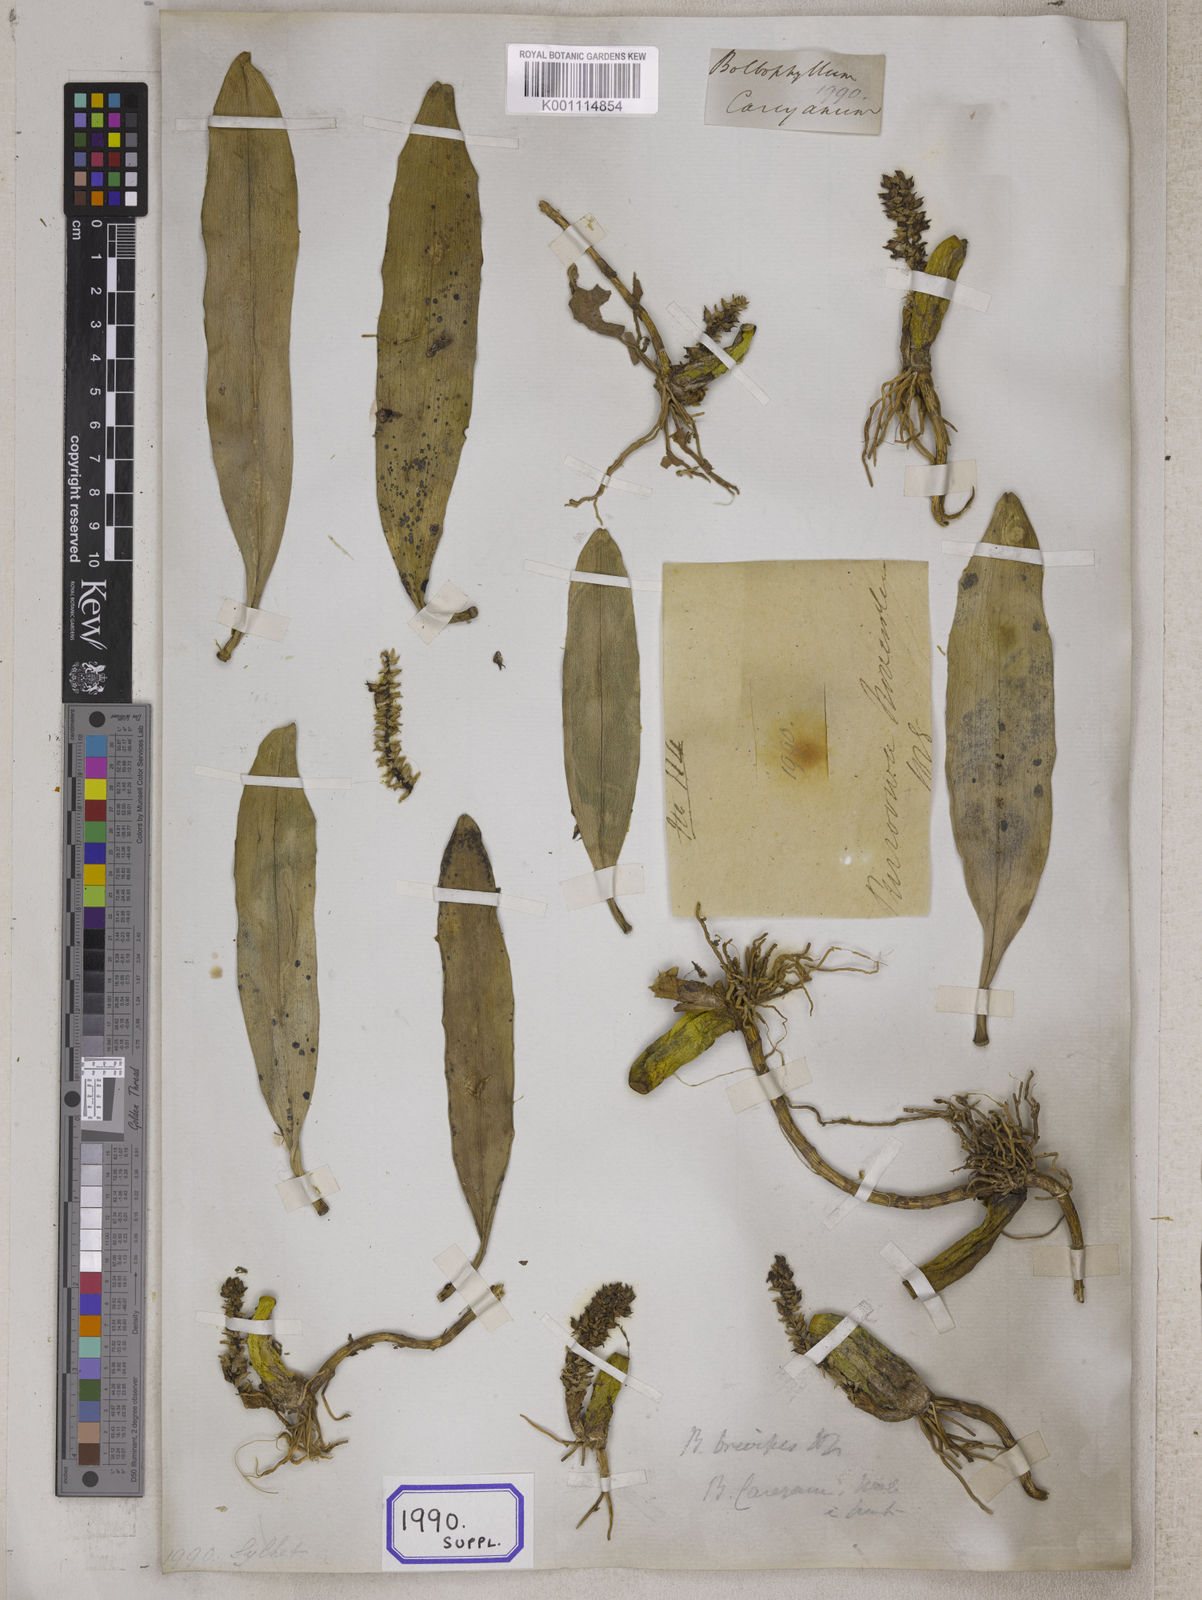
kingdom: Plantae
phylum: Tracheophyta
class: Liliopsida
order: Asparagales
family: Orchidaceae
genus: Bulbophyllum
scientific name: Bulbophyllum
